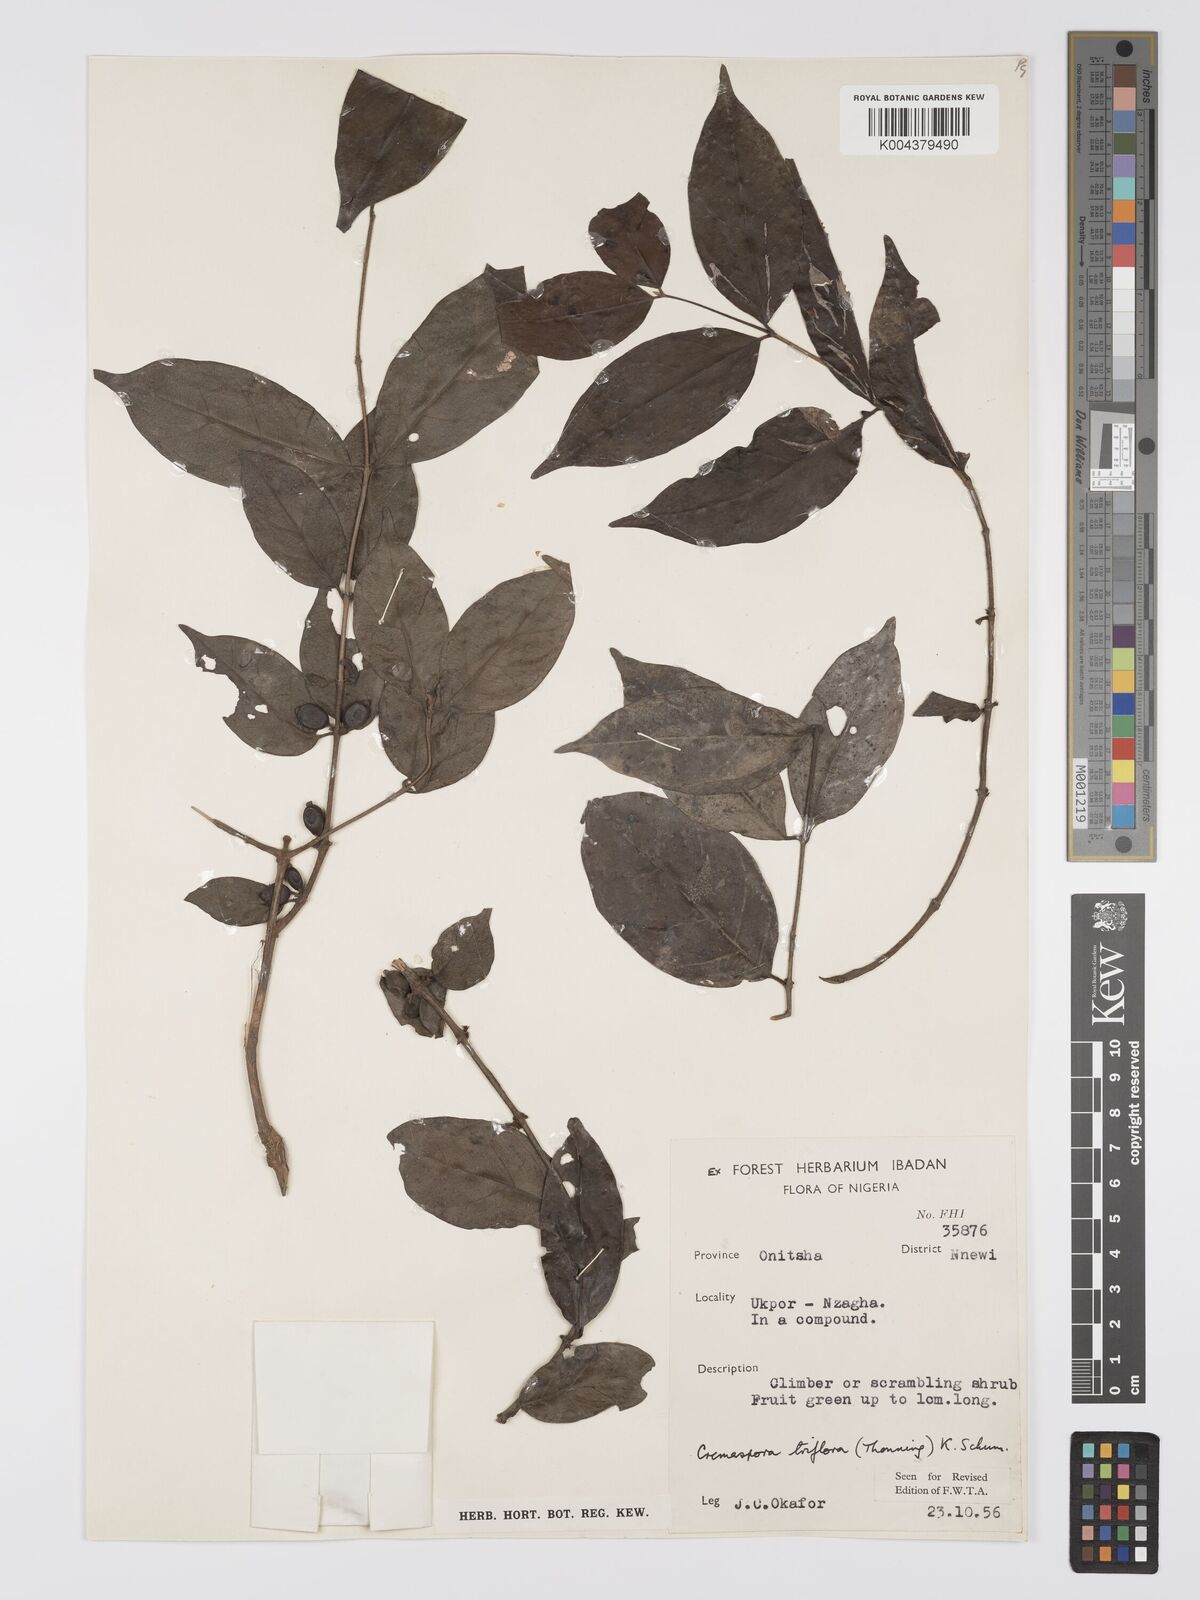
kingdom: Plantae
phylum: Tracheophyta
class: Magnoliopsida
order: Gentianales
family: Rubiaceae
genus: Cremaspora
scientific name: Cremaspora triflora
